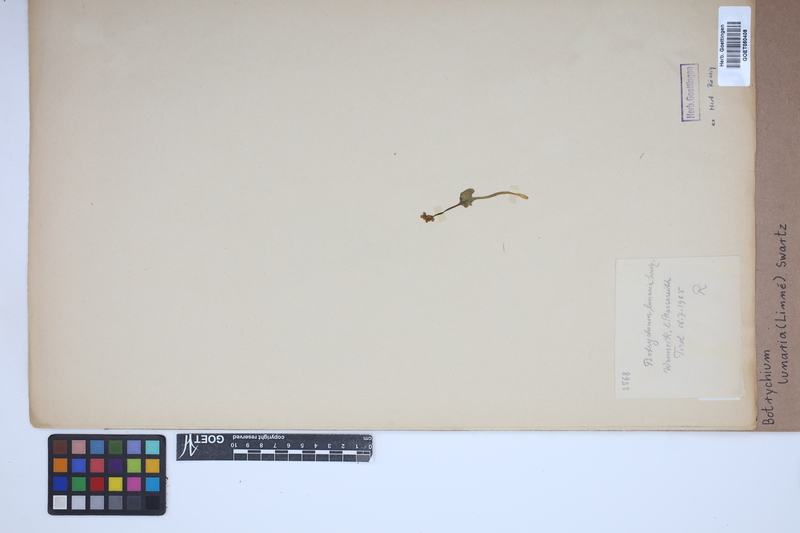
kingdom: Plantae
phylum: Tracheophyta
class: Polypodiopsida
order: Ophioglossales
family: Ophioglossaceae
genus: Botrychium
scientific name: Botrychium lunaria
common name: Moonwort
